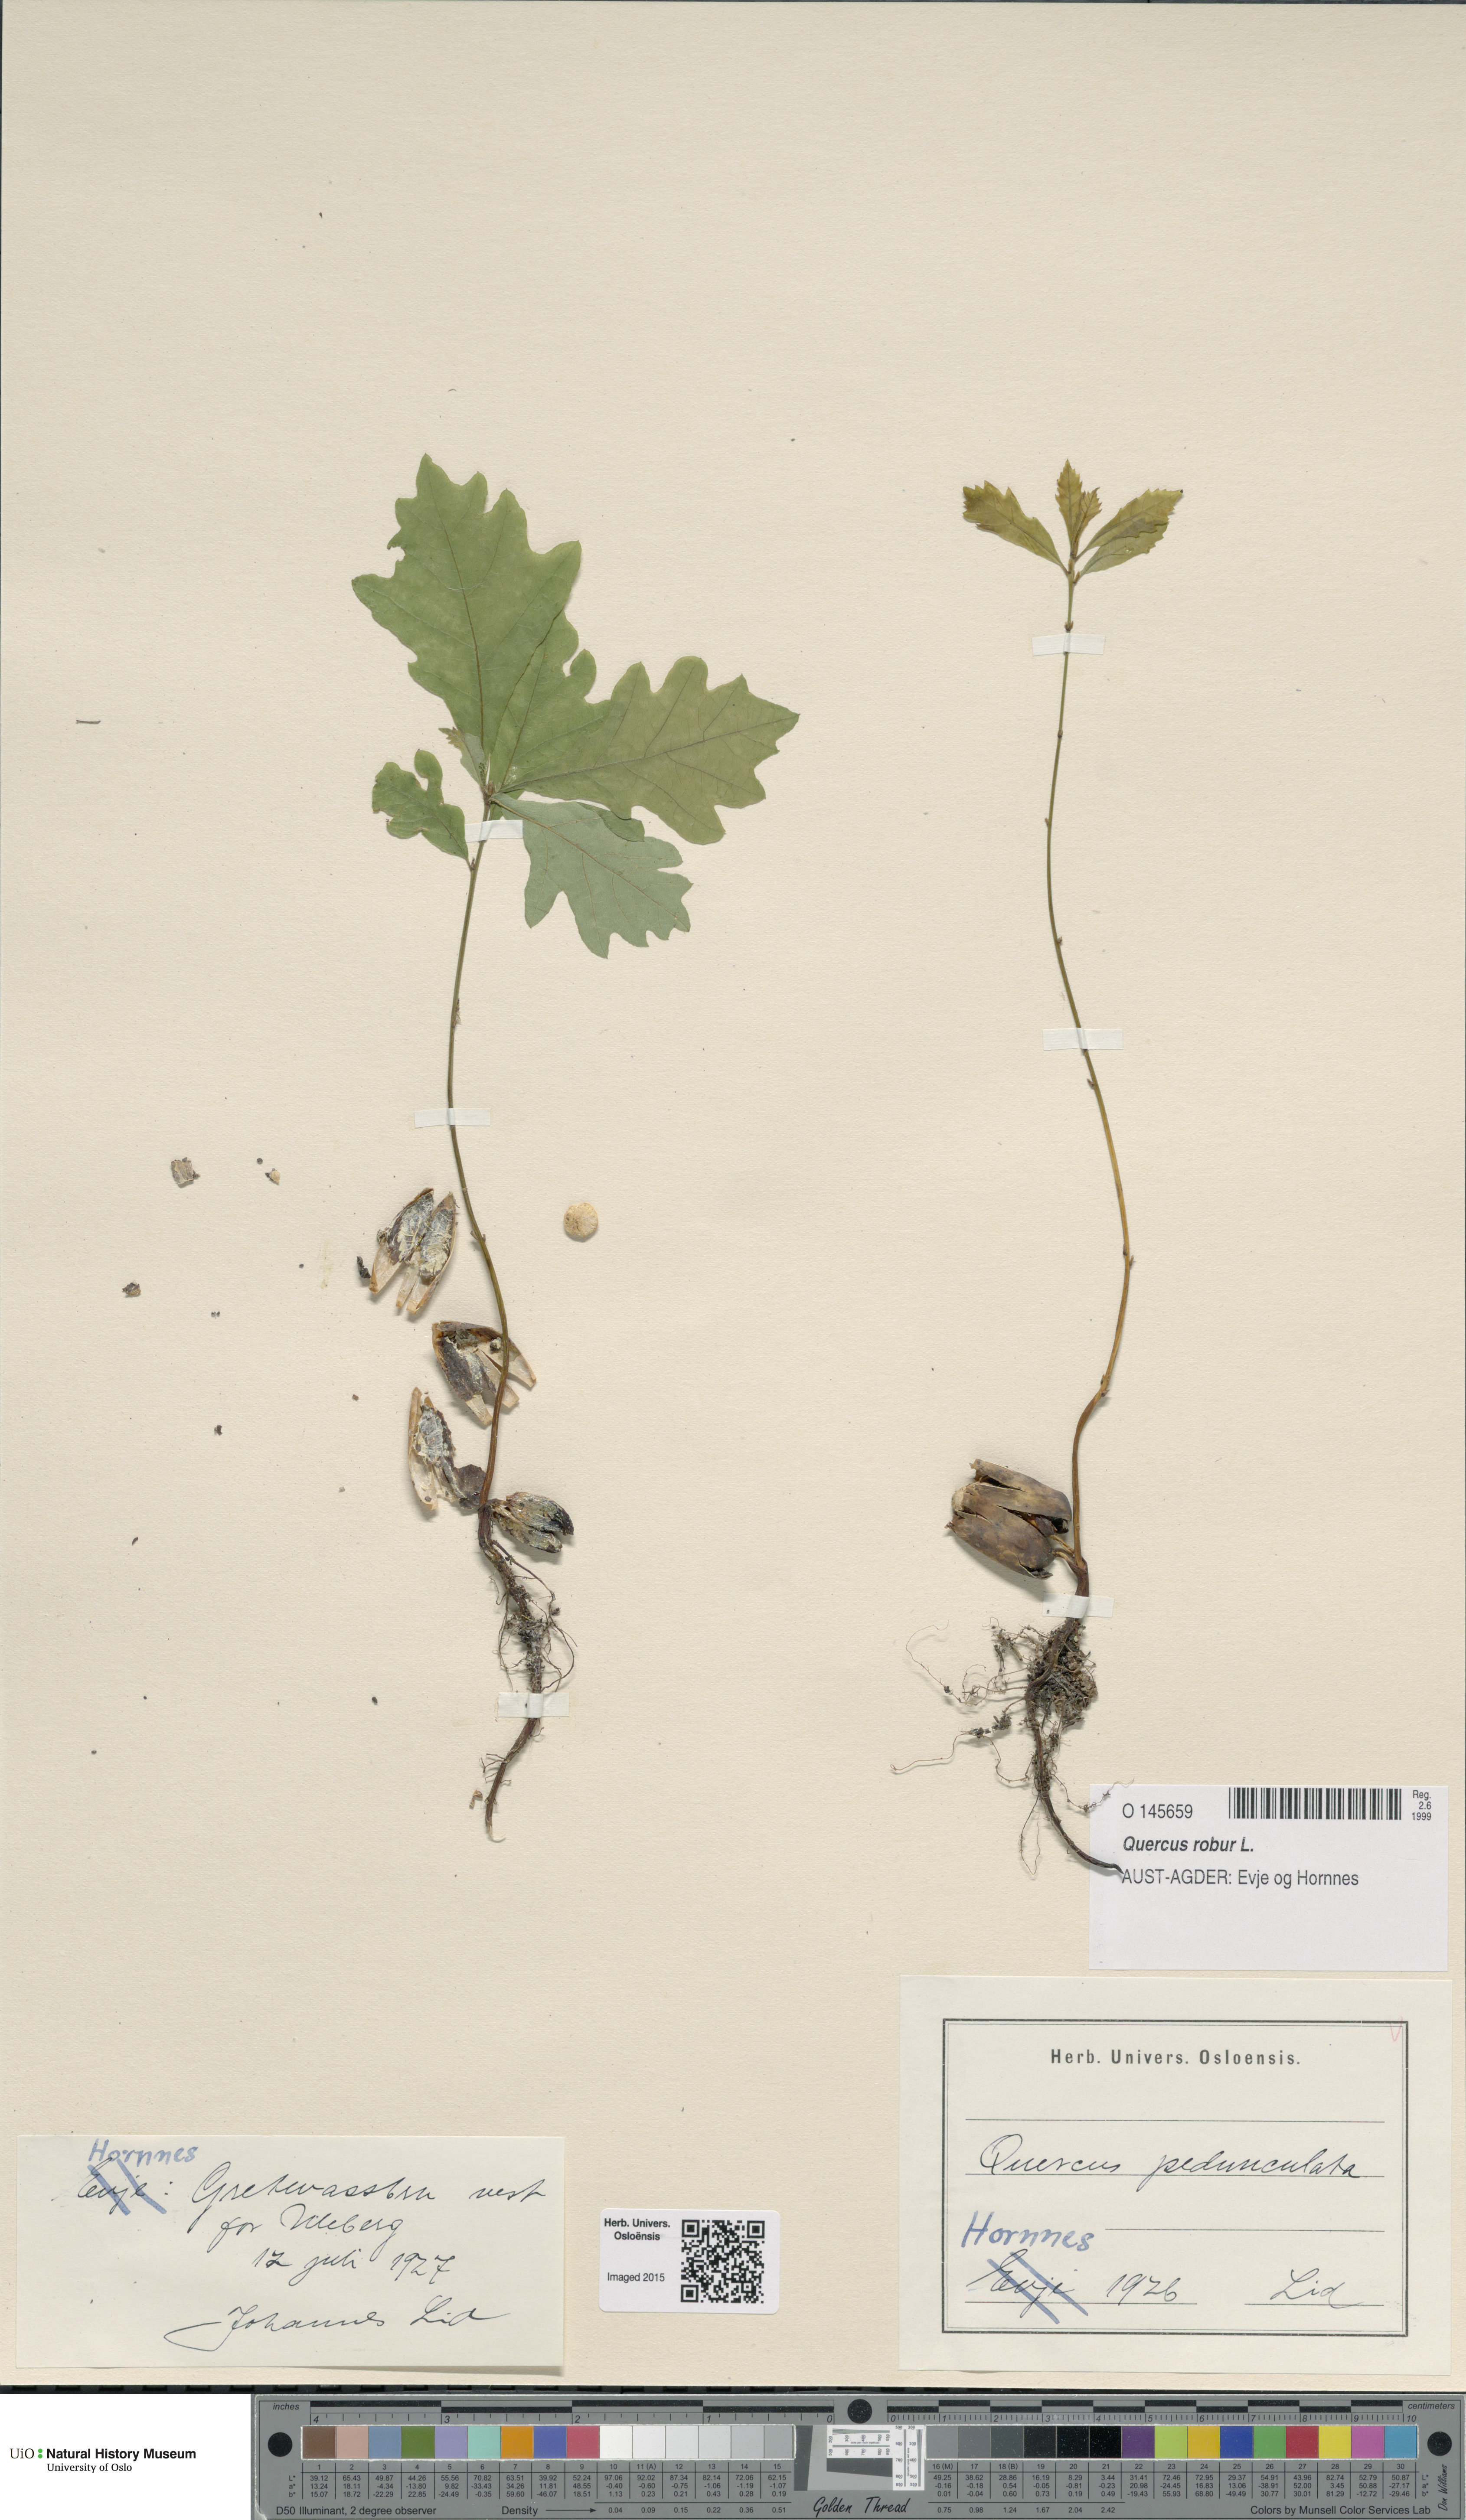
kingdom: Plantae
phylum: Tracheophyta
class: Magnoliopsida
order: Fagales
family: Fagaceae
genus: Quercus
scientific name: Quercus robur
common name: Pedunculate oak
